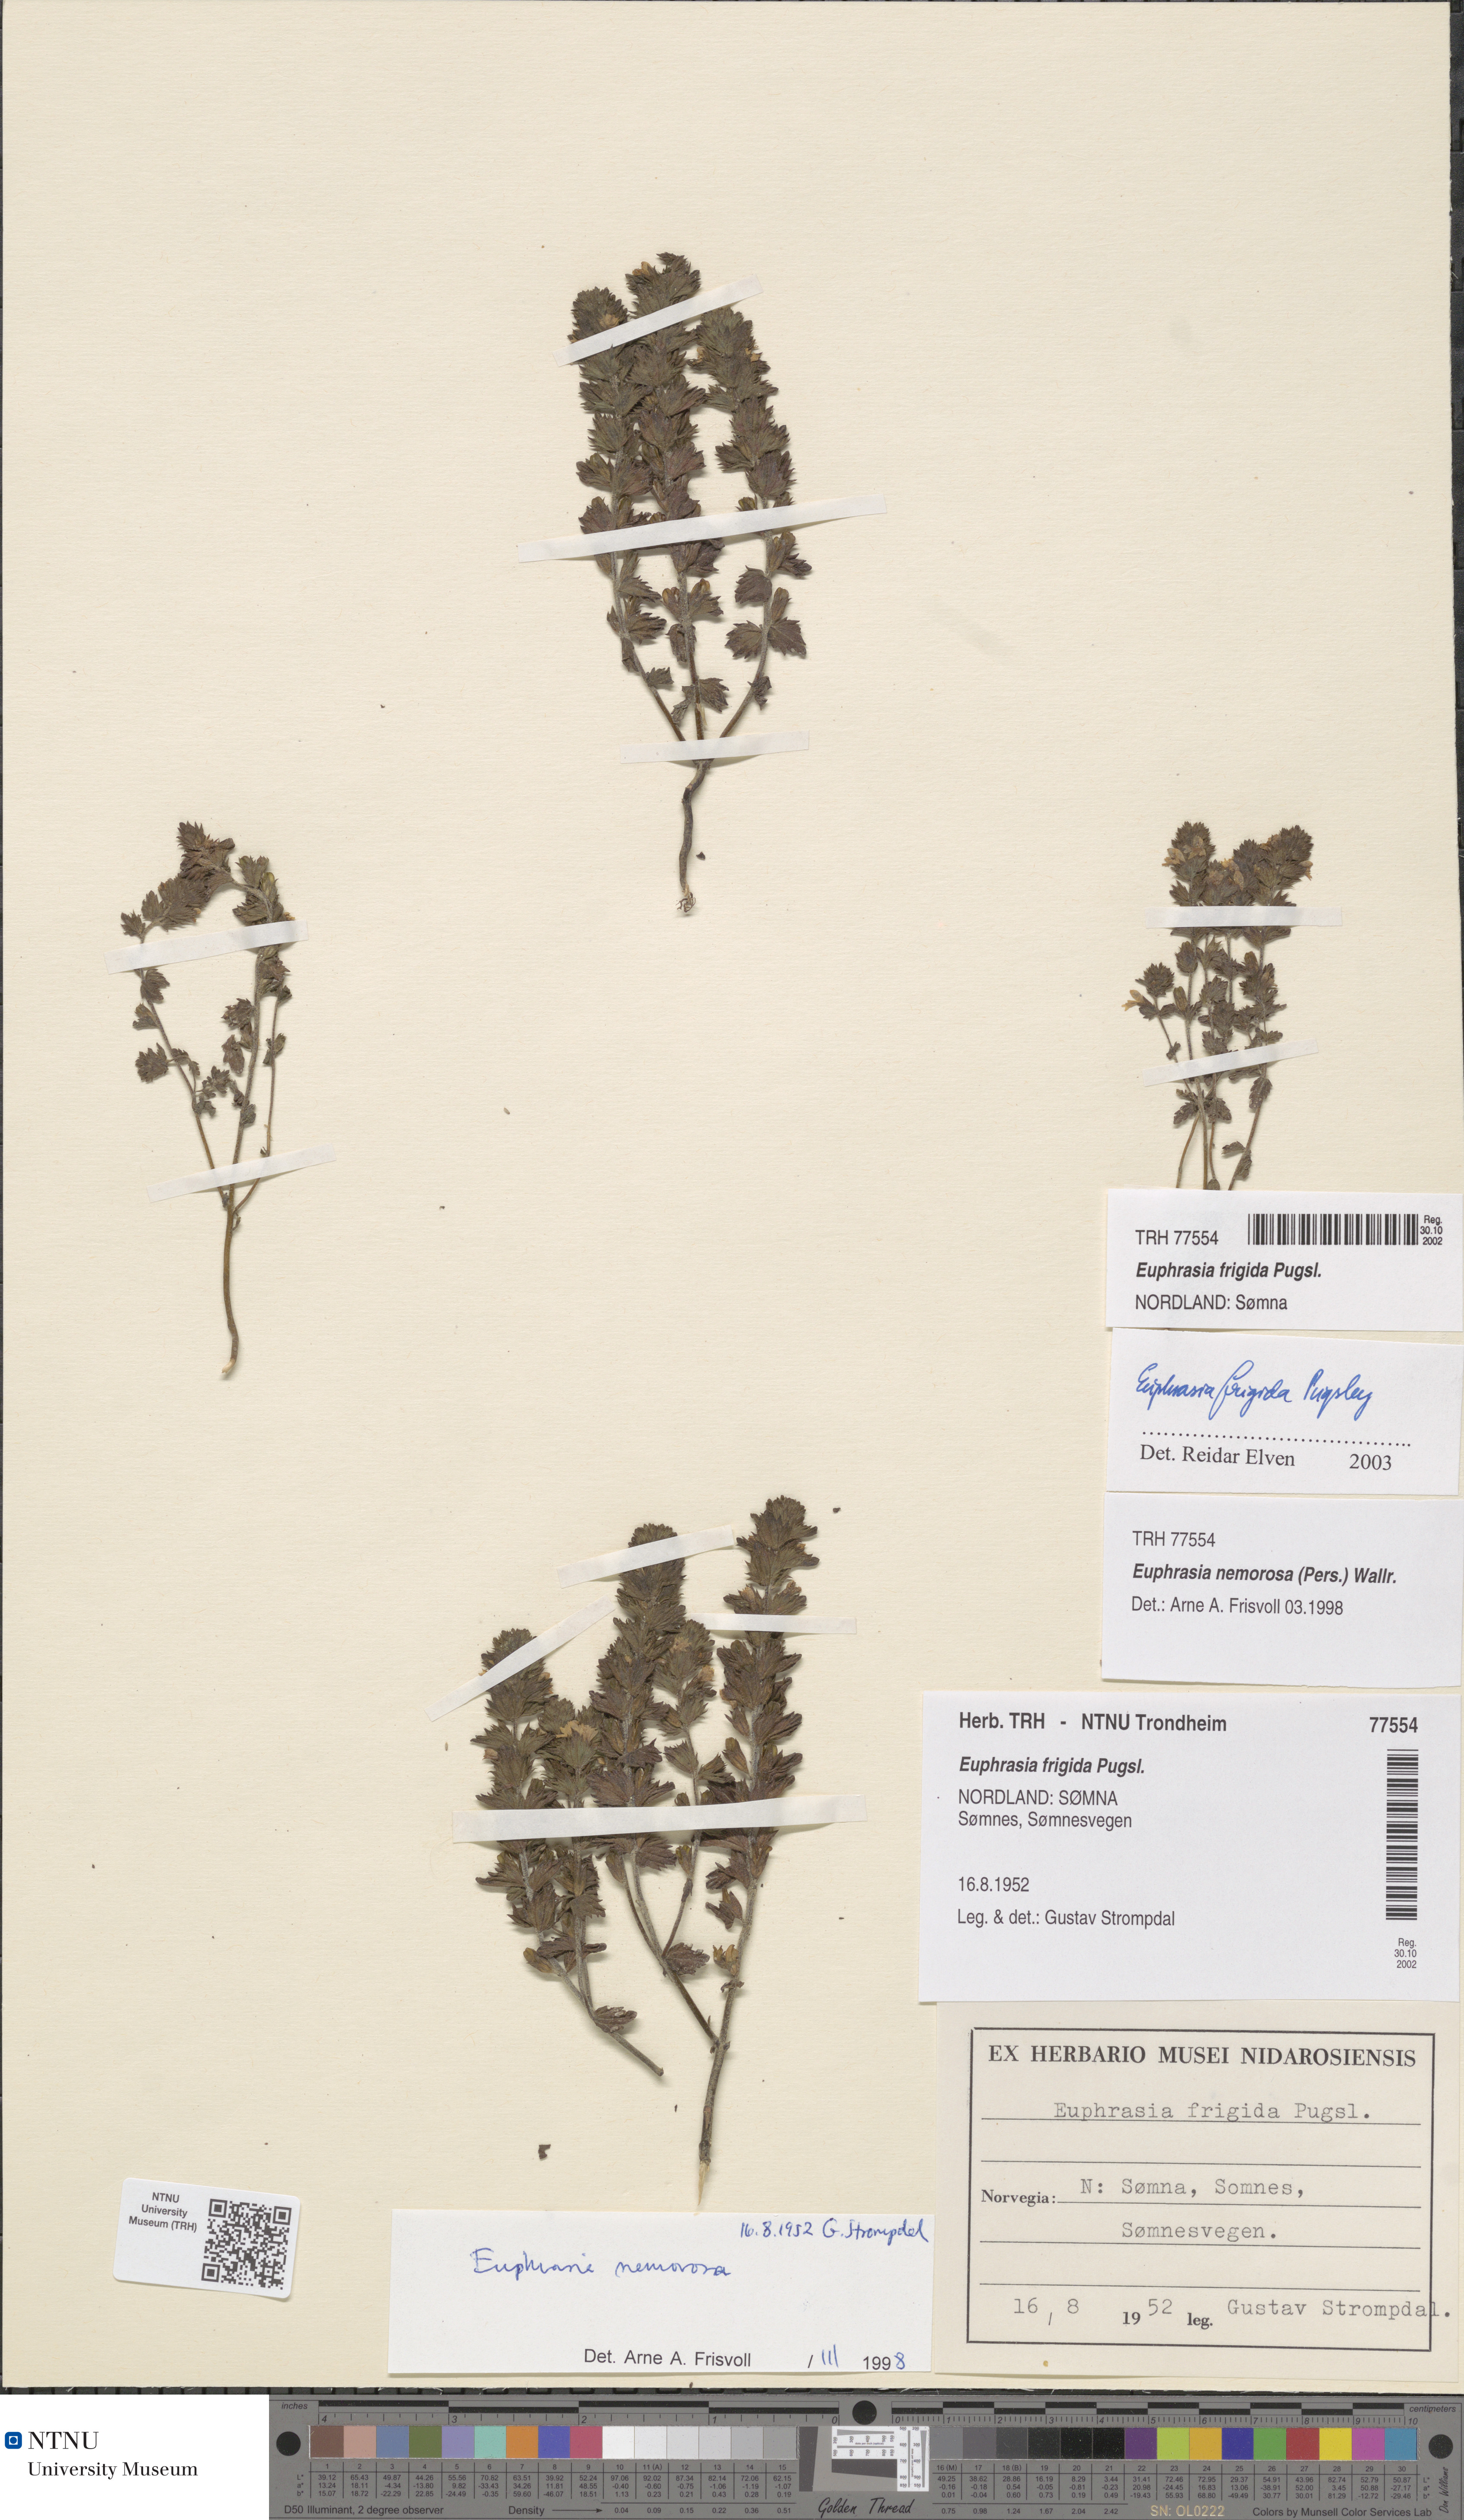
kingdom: Plantae
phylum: Tracheophyta
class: Magnoliopsida
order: Lamiales
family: Orobanchaceae
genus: Euphrasia
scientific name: Euphrasia wettsteinii
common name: Wettstein's eyebright
